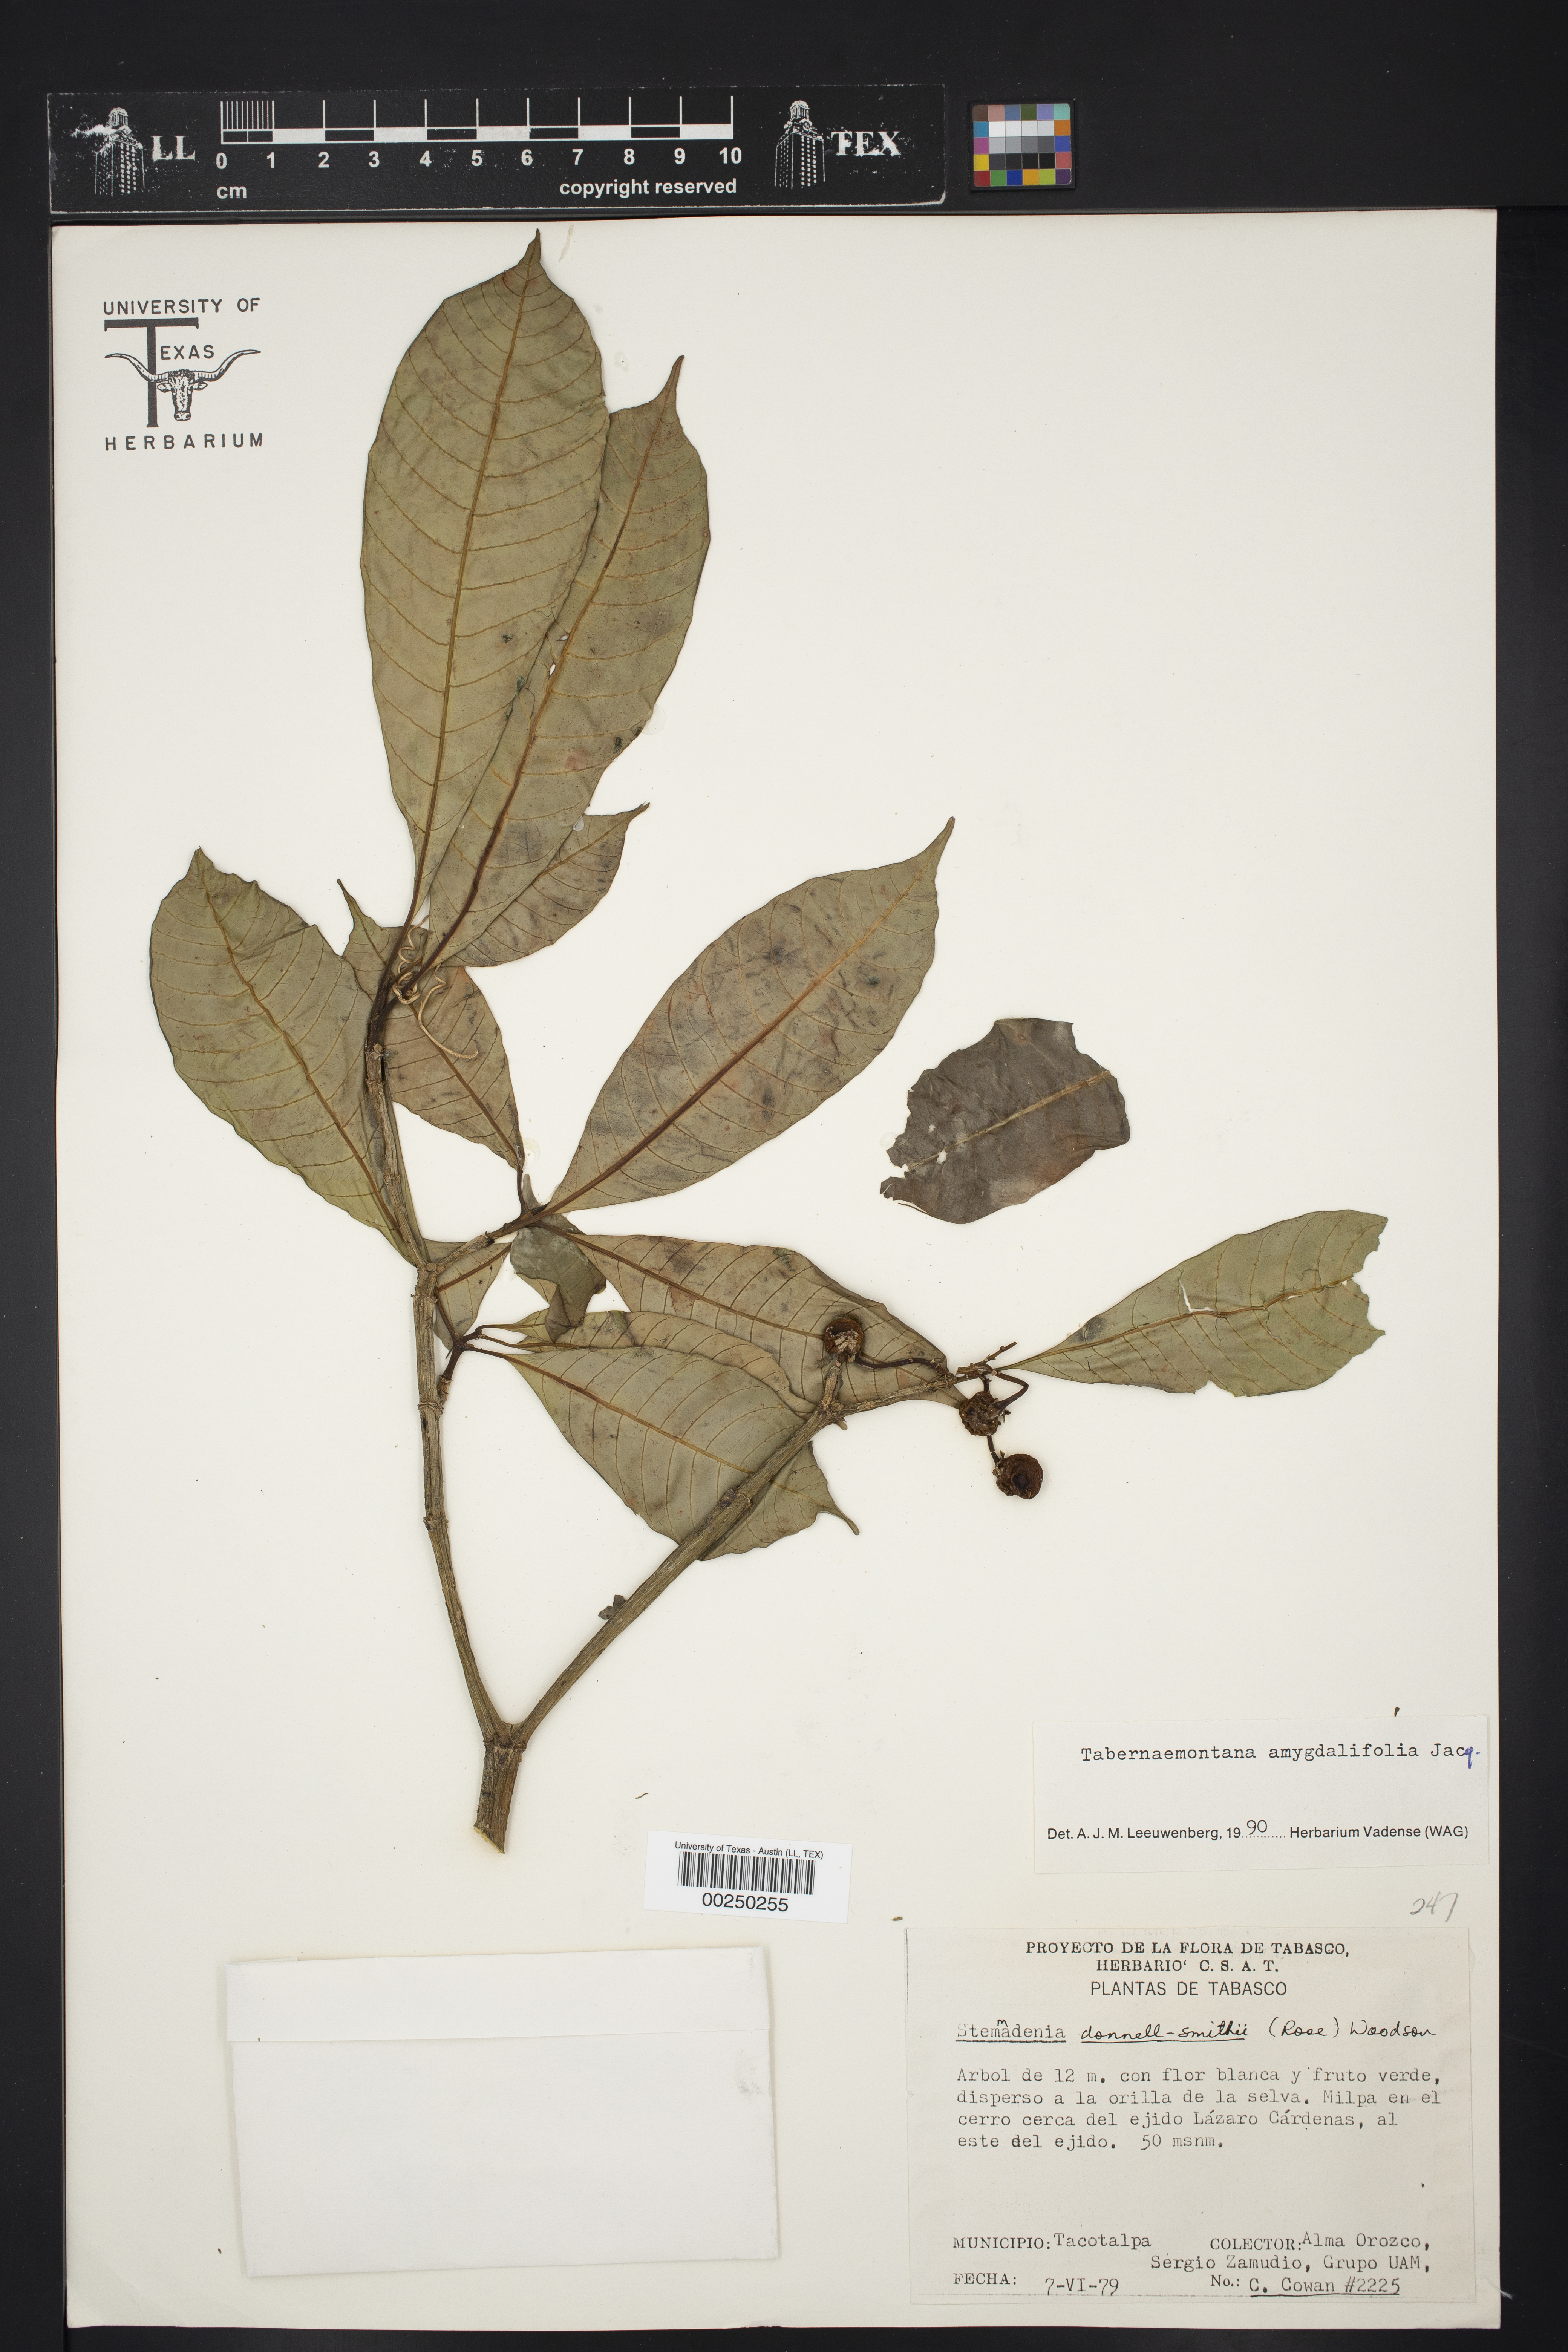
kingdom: Plantae
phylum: Tracheophyta
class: Magnoliopsida
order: Gentianales
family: Apocynaceae
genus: Tabernaemontana
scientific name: Tabernaemontana amygdalifolia
